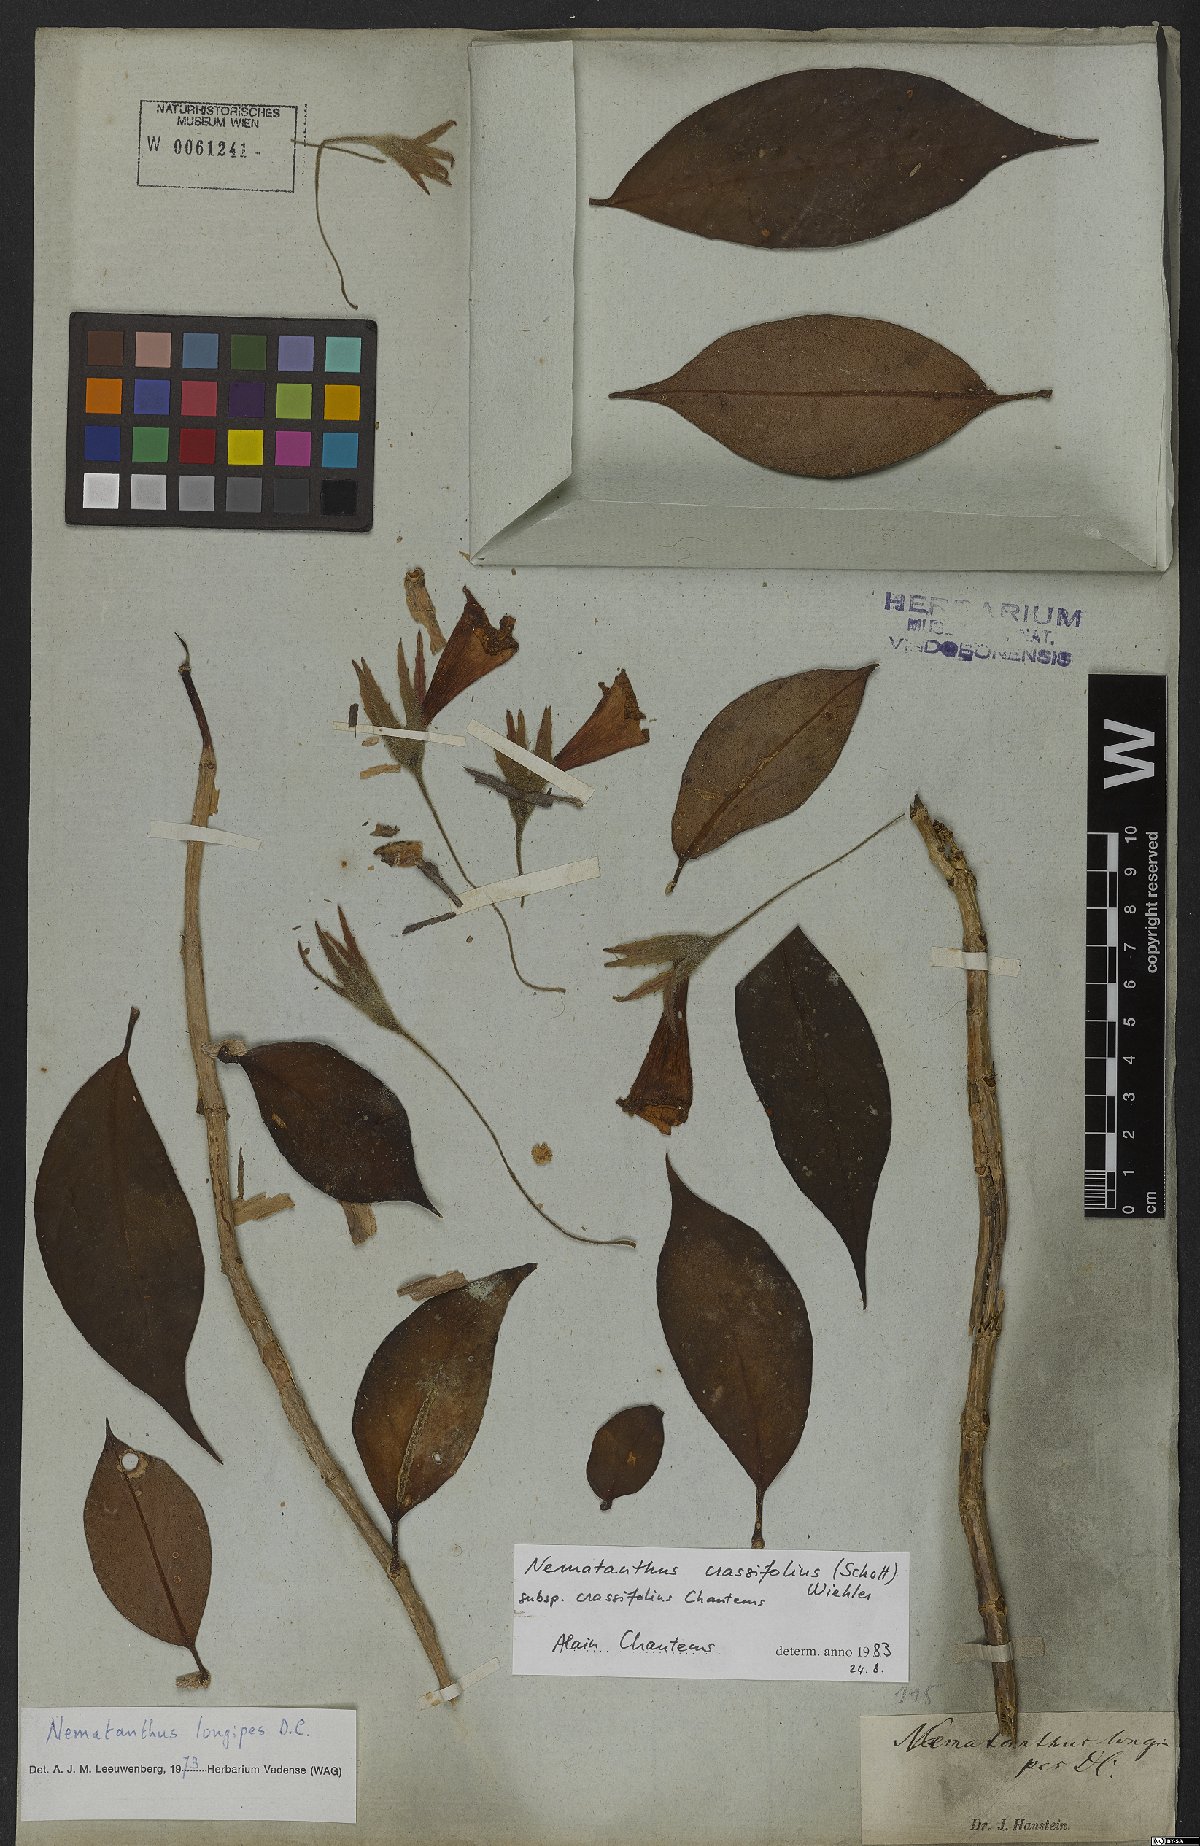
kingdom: Plantae
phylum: Tracheophyta
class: Magnoliopsida
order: Lamiales
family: Gesneriaceae
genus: Nematanthus
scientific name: Nematanthus crassifolius
